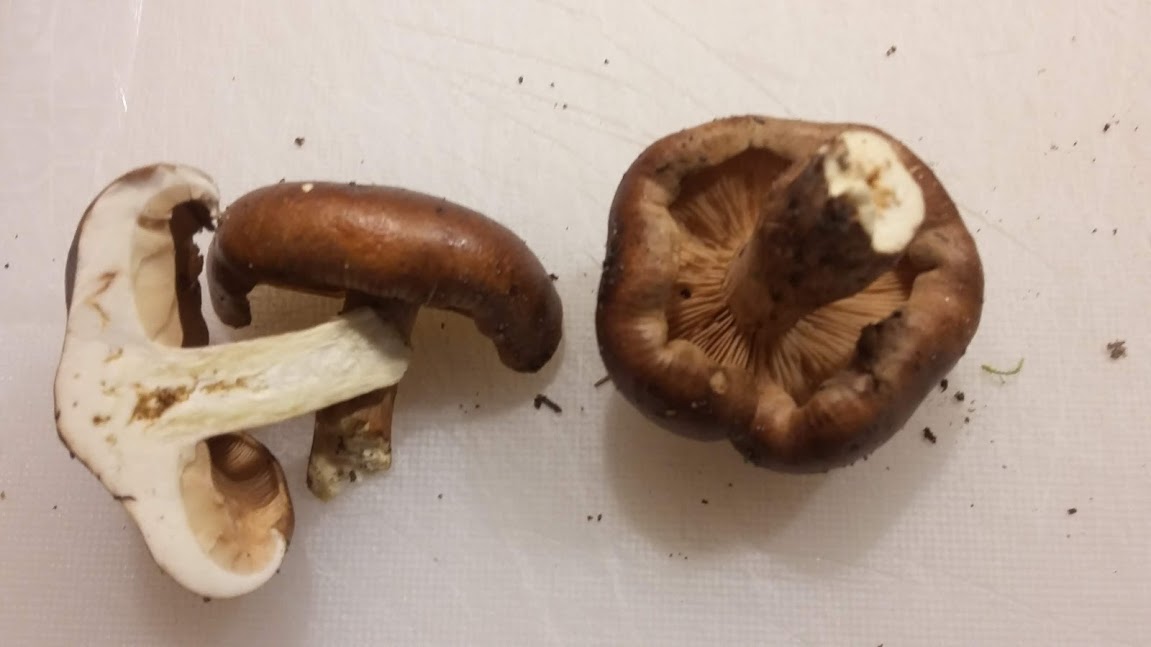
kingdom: Fungi
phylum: Basidiomycota
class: Agaricomycetes
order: Agaricales
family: Tricholomataceae
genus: Tricholoma
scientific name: Tricholoma ustale
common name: sveden ridderhat
